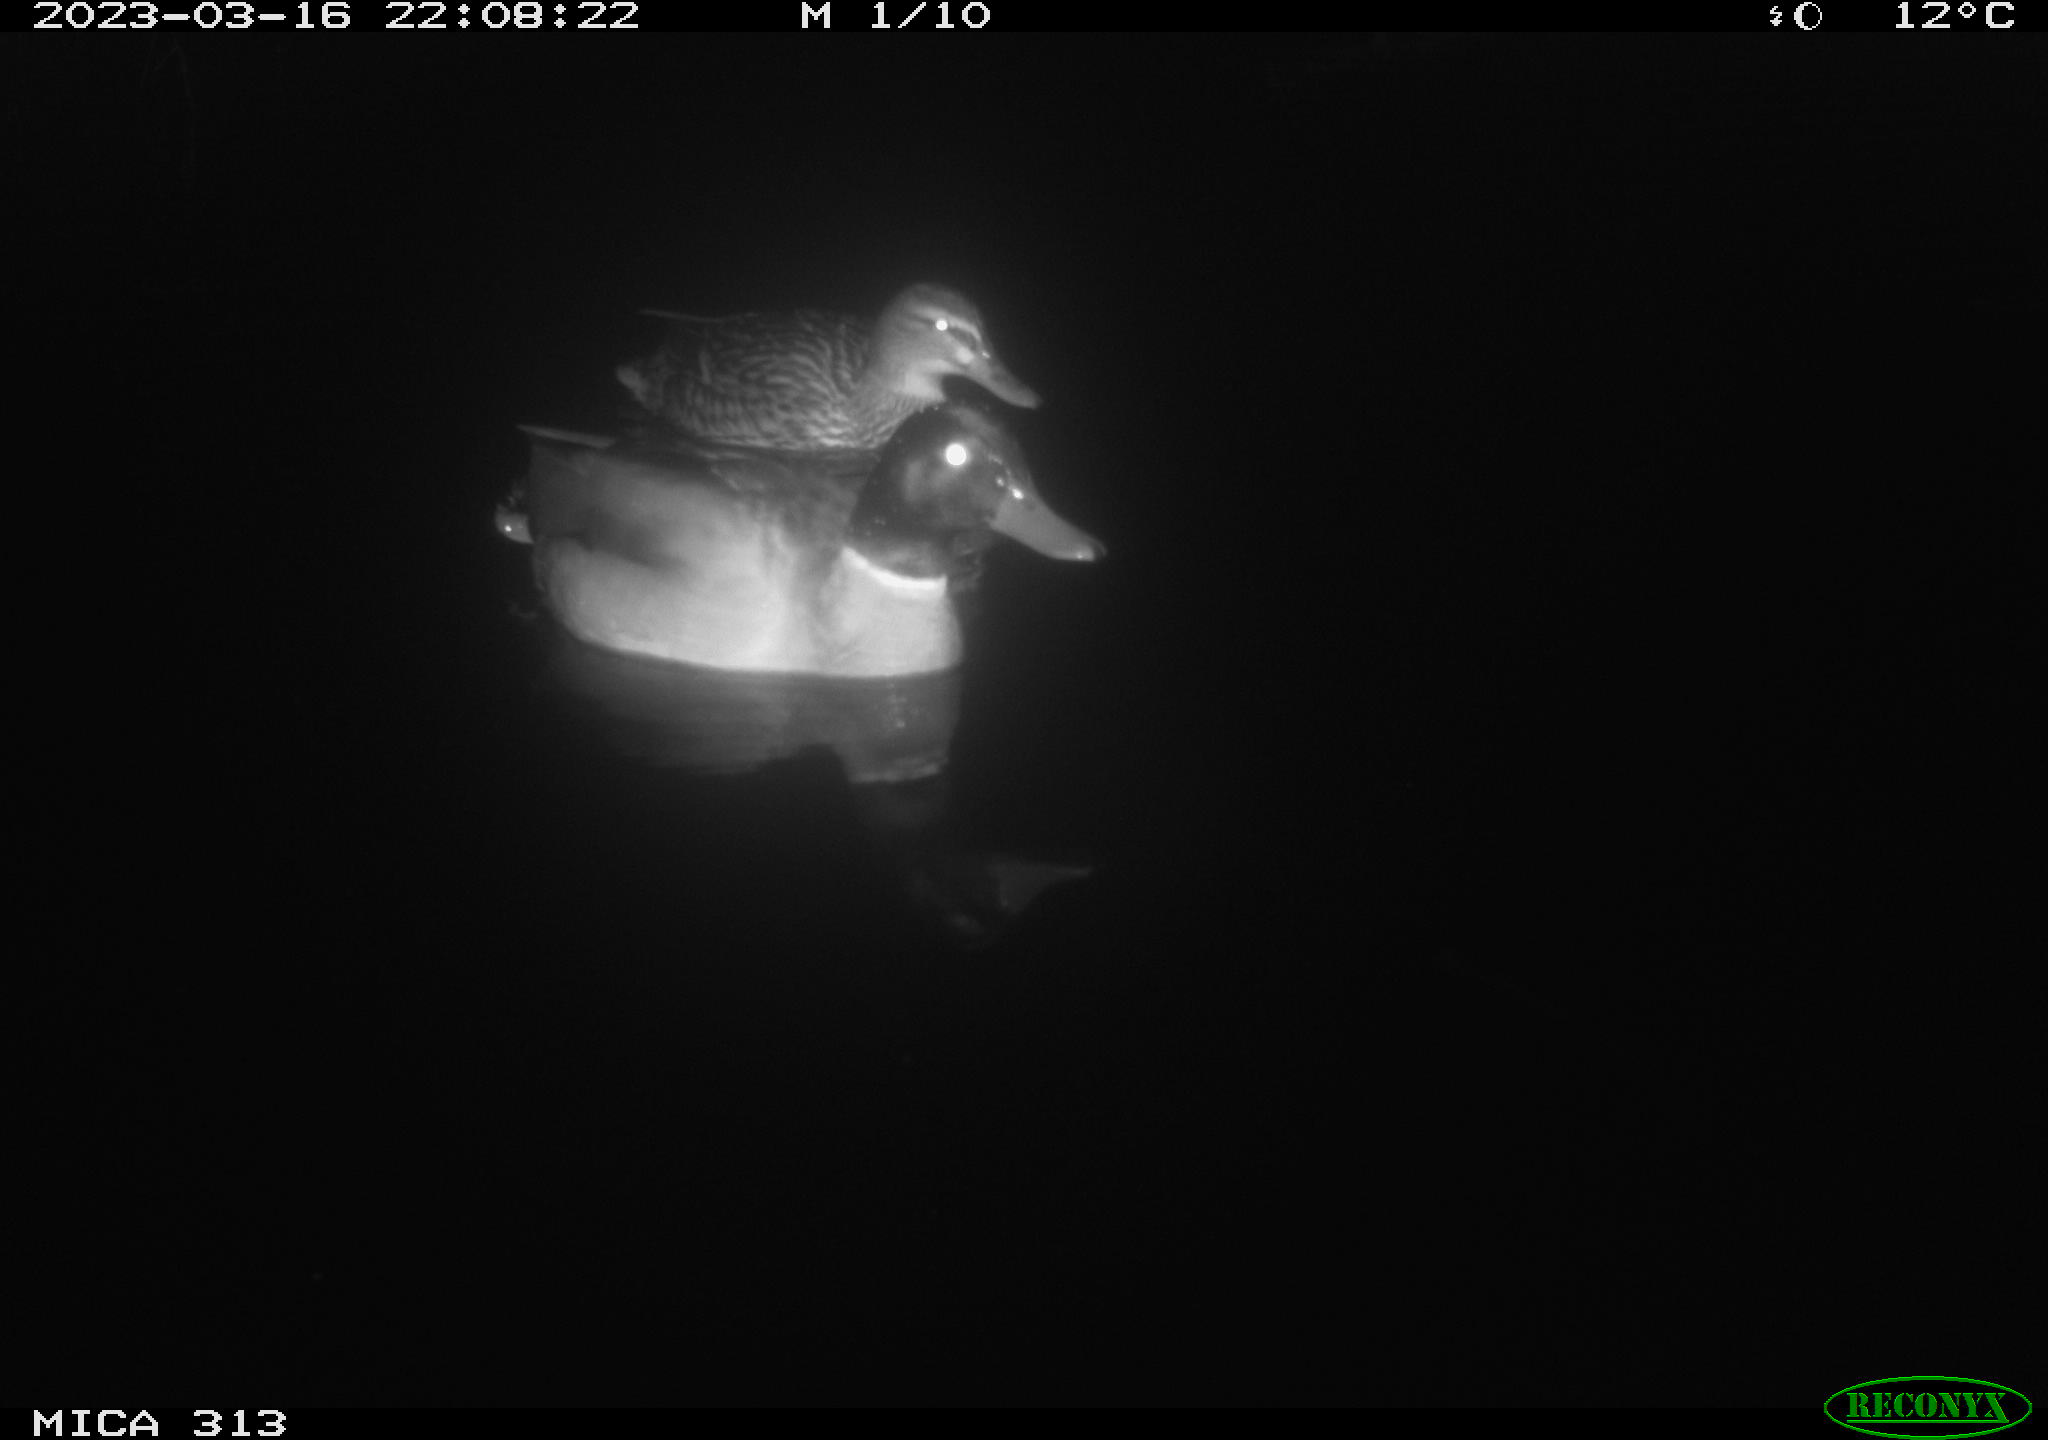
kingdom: Animalia
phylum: Chordata
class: Aves
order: Anseriformes
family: Anatidae
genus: Anas
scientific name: Anas
